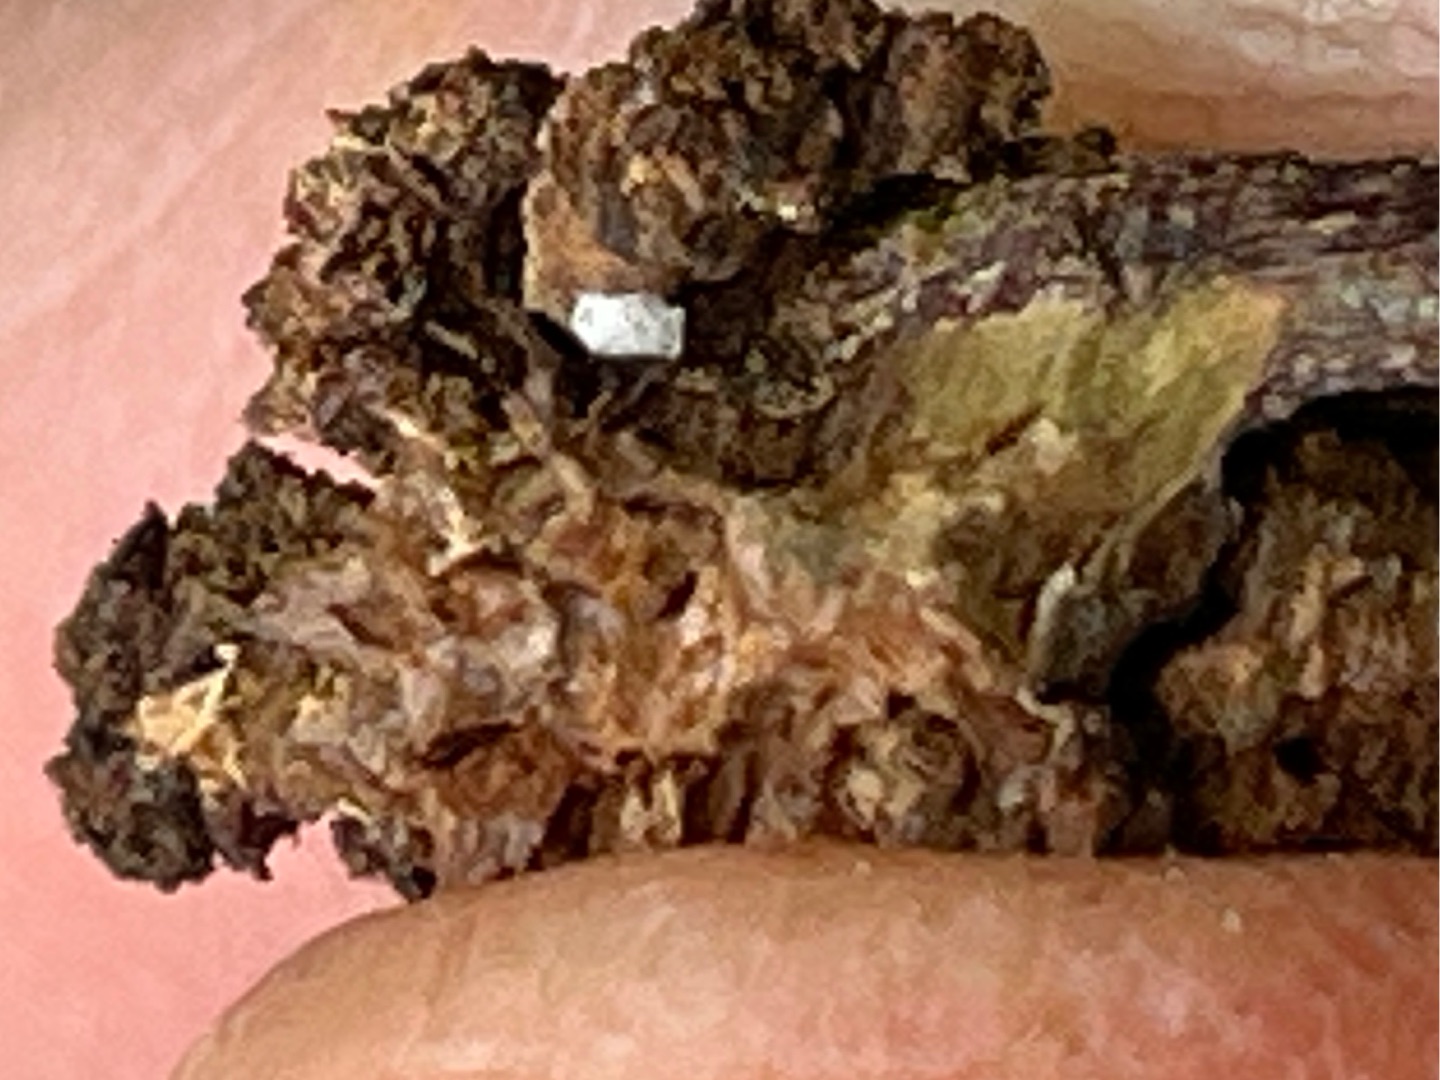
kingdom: Animalia
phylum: Arthropoda
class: Insecta
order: Diptera
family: Cecidomyiidae
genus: Arthrocnodax
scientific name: Arthrocnodax fraxinellus
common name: Askeblomstrovmyg
